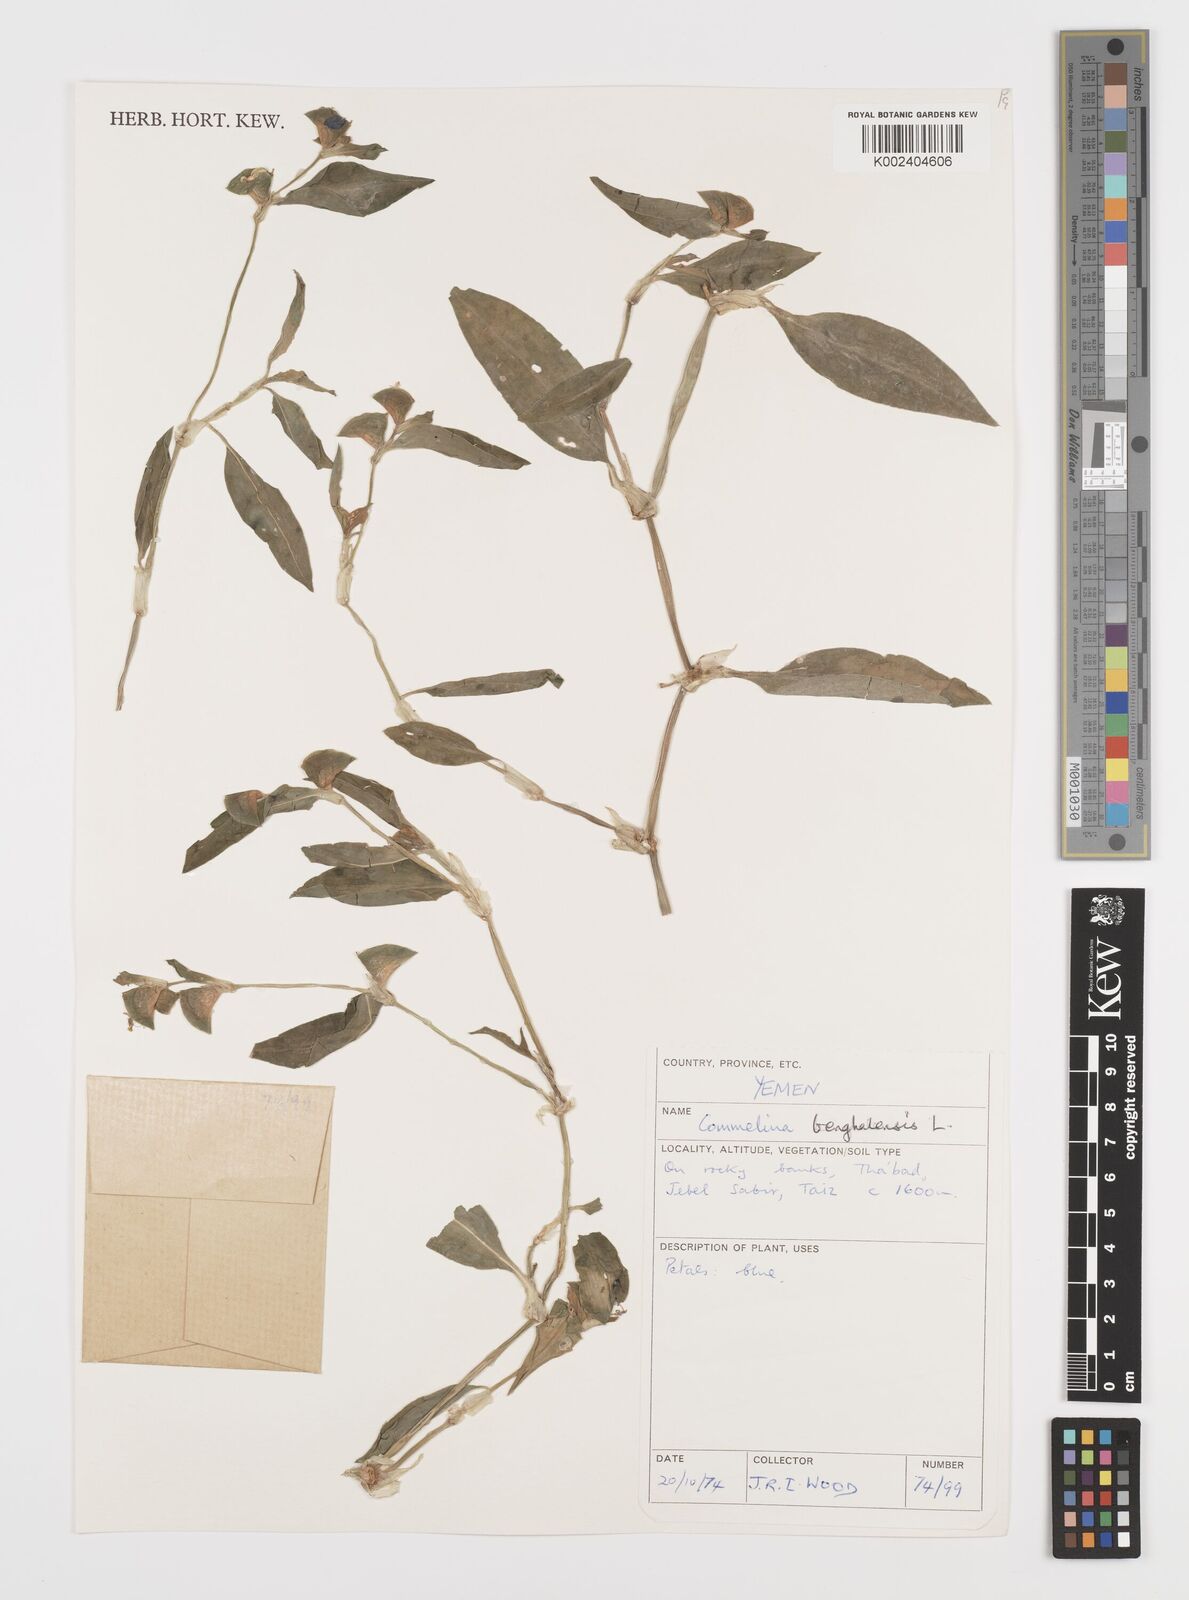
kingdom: Plantae
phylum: Tracheophyta
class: Liliopsida
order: Commelinales
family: Commelinaceae
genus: Commelina
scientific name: Commelina benghalensis
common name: Jio
